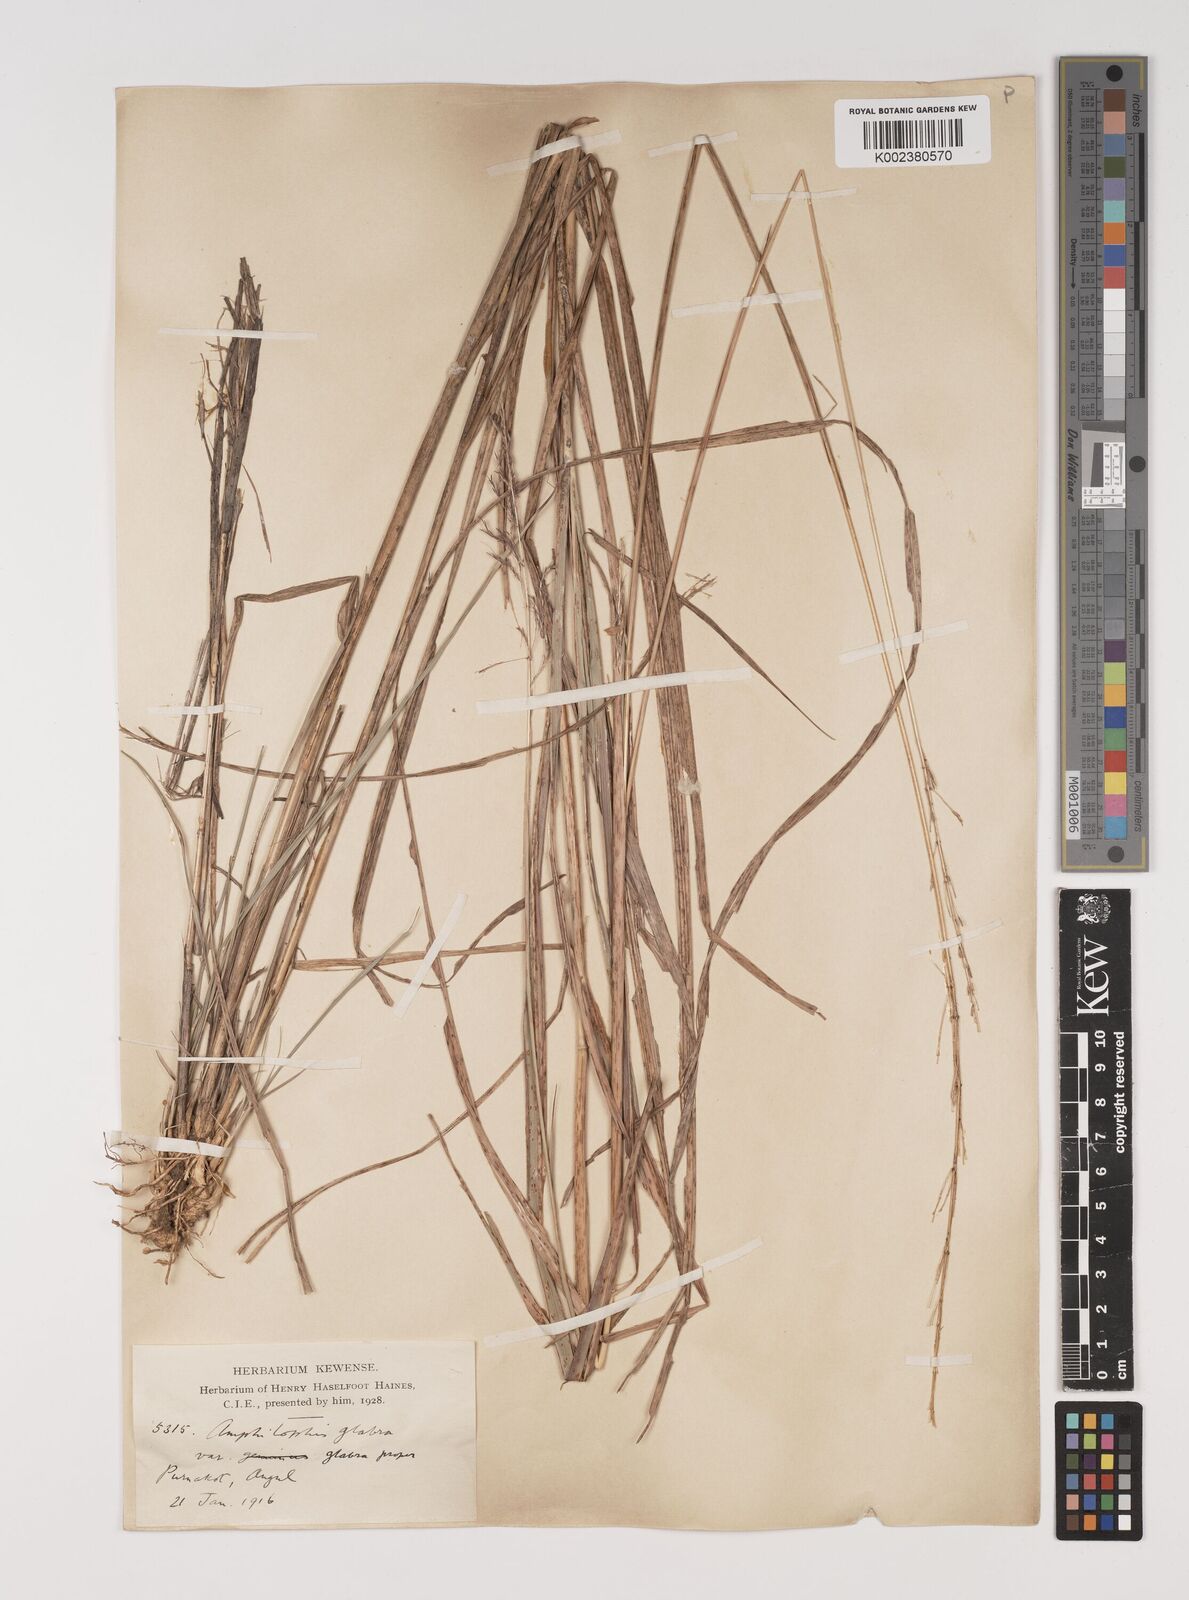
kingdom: Plantae
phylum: Tracheophyta
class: Liliopsida
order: Poales
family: Poaceae
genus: Bothriochloa
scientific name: Bothriochloa bladhii
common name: Caucasian bluestem
